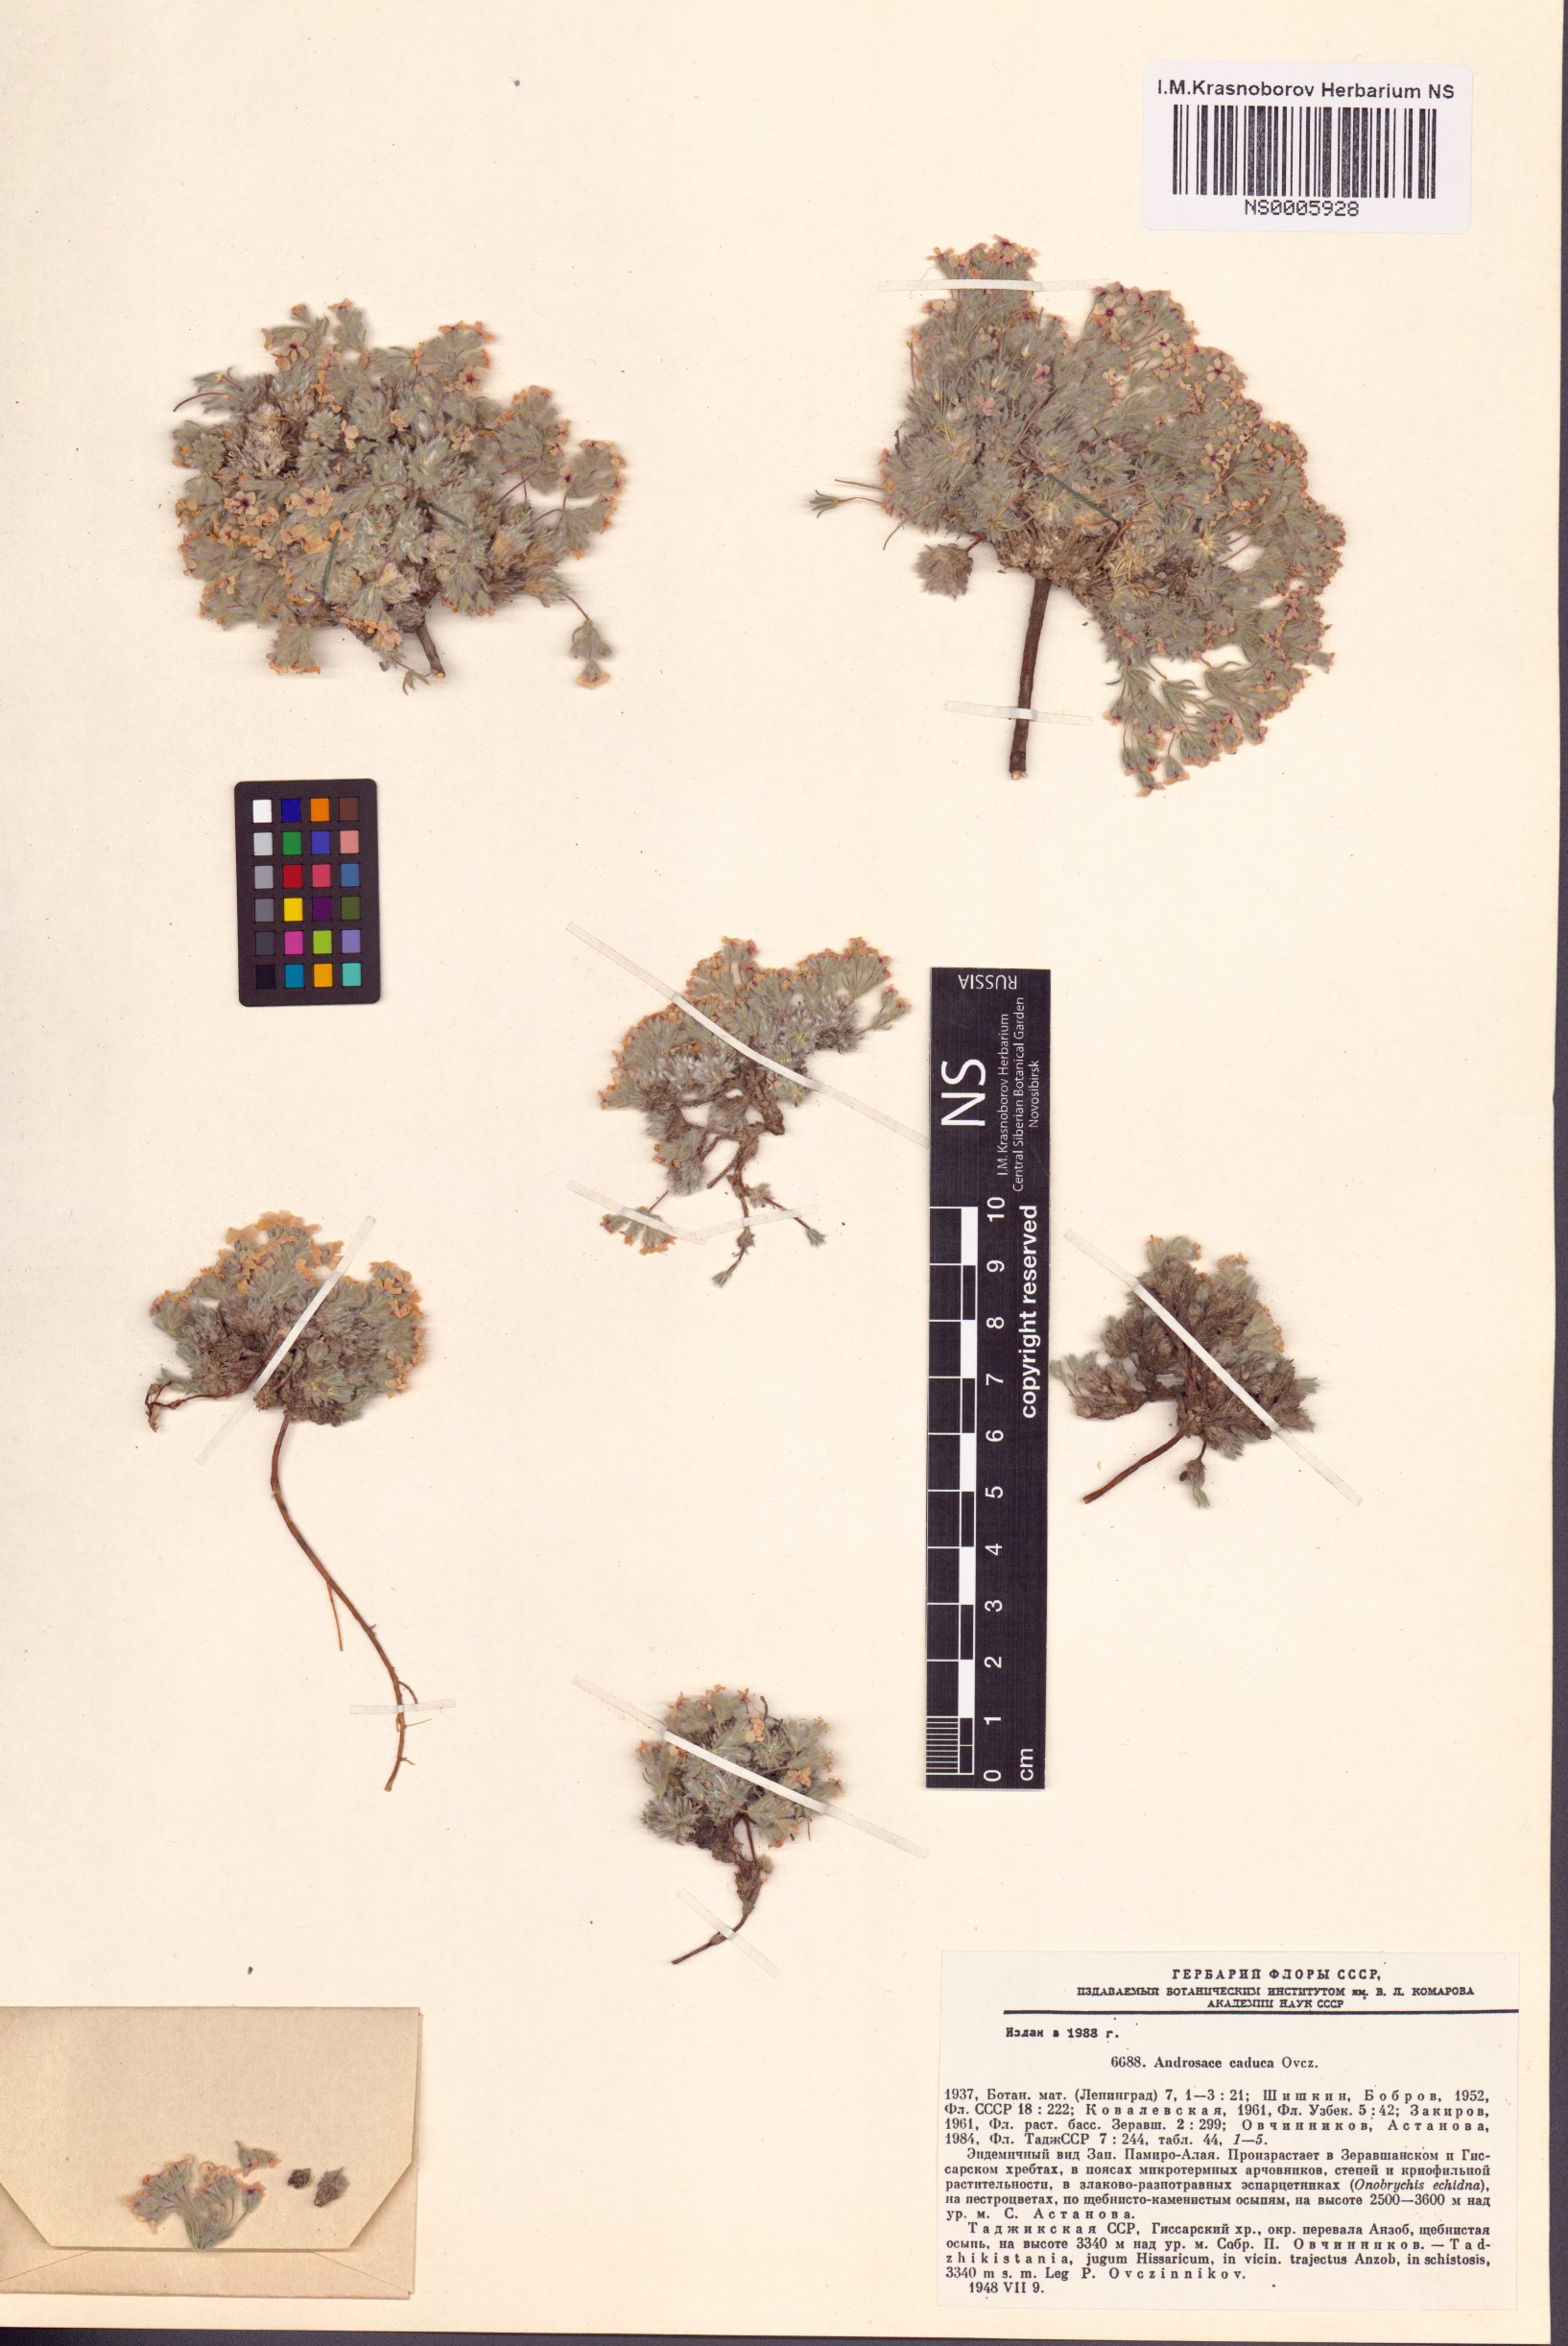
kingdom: Plantae
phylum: Tracheophyta
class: Magnoliopsida
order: Ericales
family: Primulaceae
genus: Androsace
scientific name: Androsace caduca
